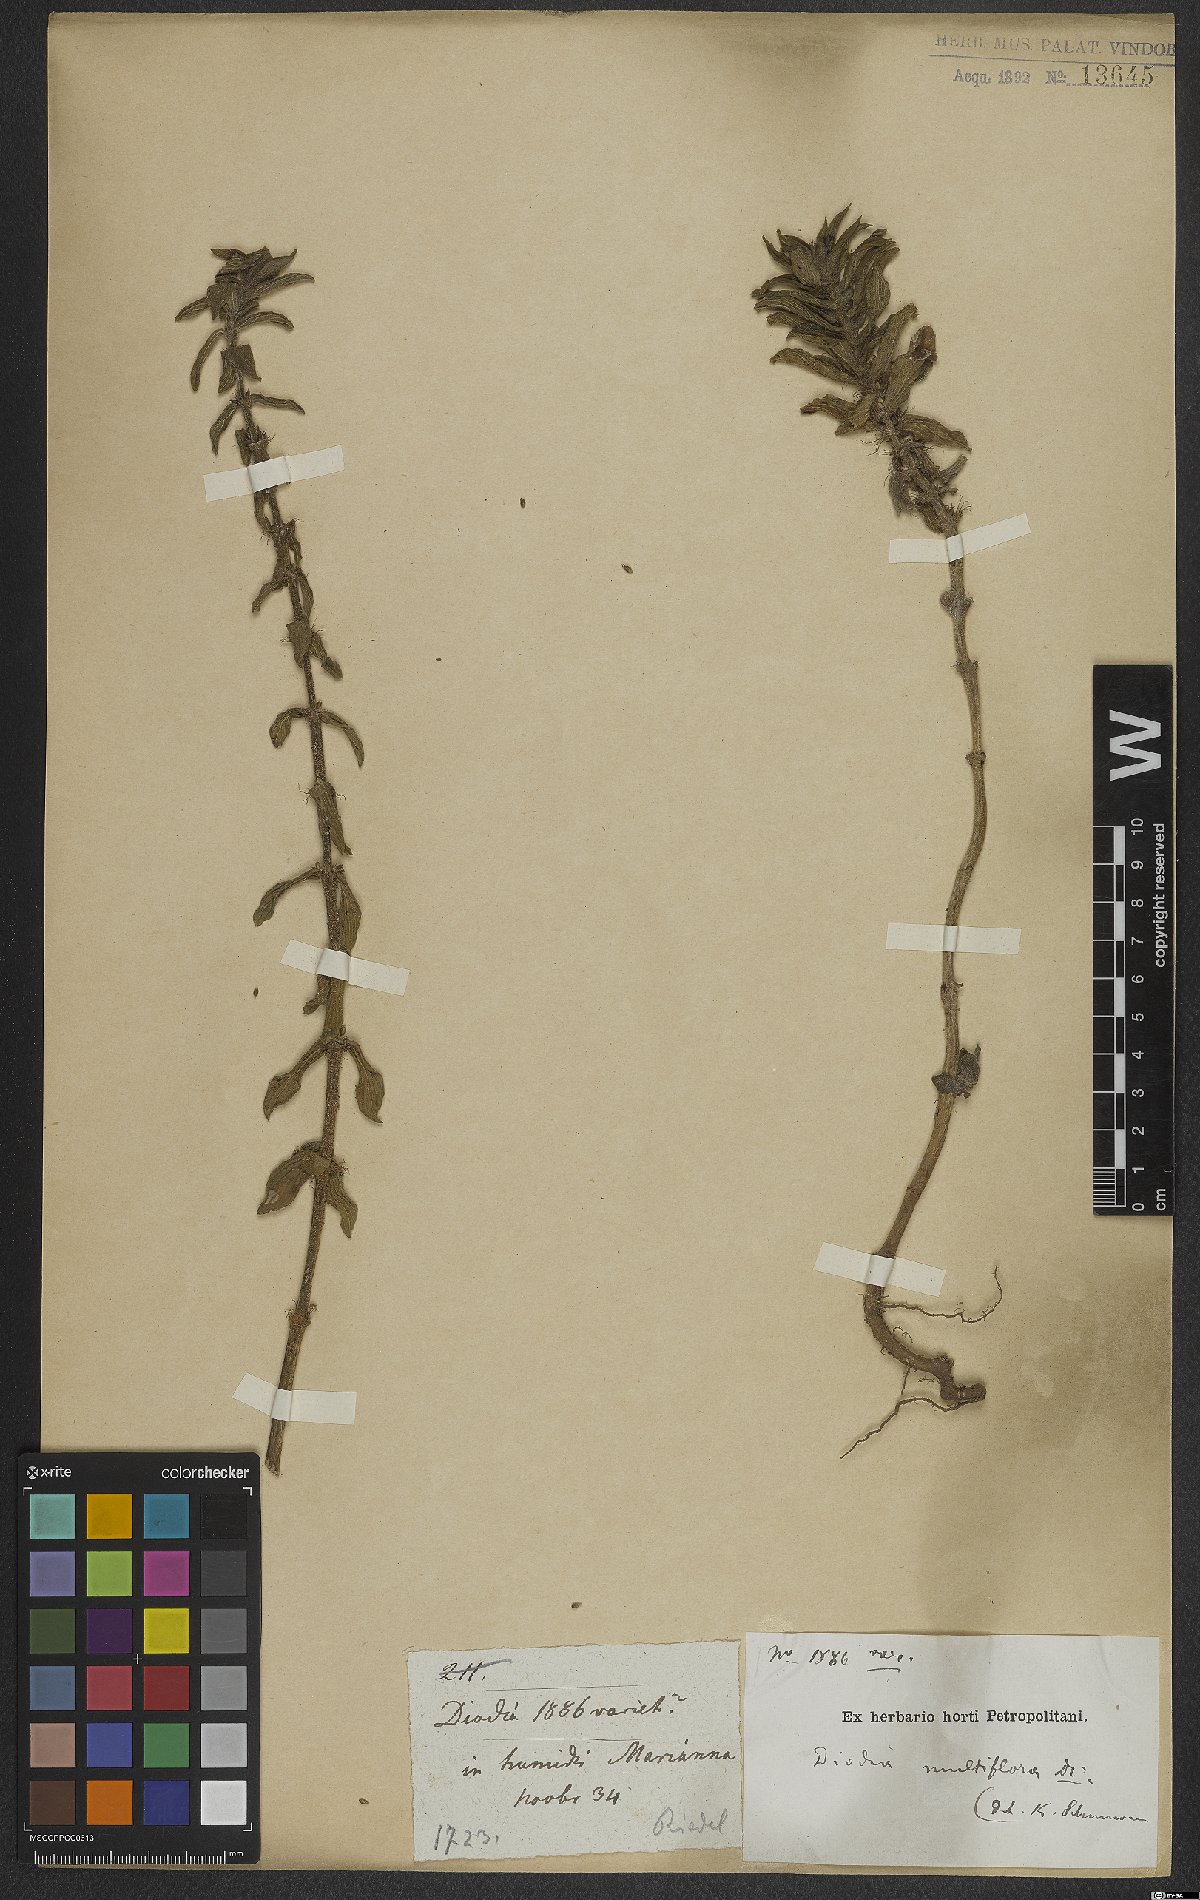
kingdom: Plantae
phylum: Tracheophyta
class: Magnoliopsida
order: Gentianales
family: Rubiaceae
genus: Spermacoce
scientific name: Spermacoce multiflora
